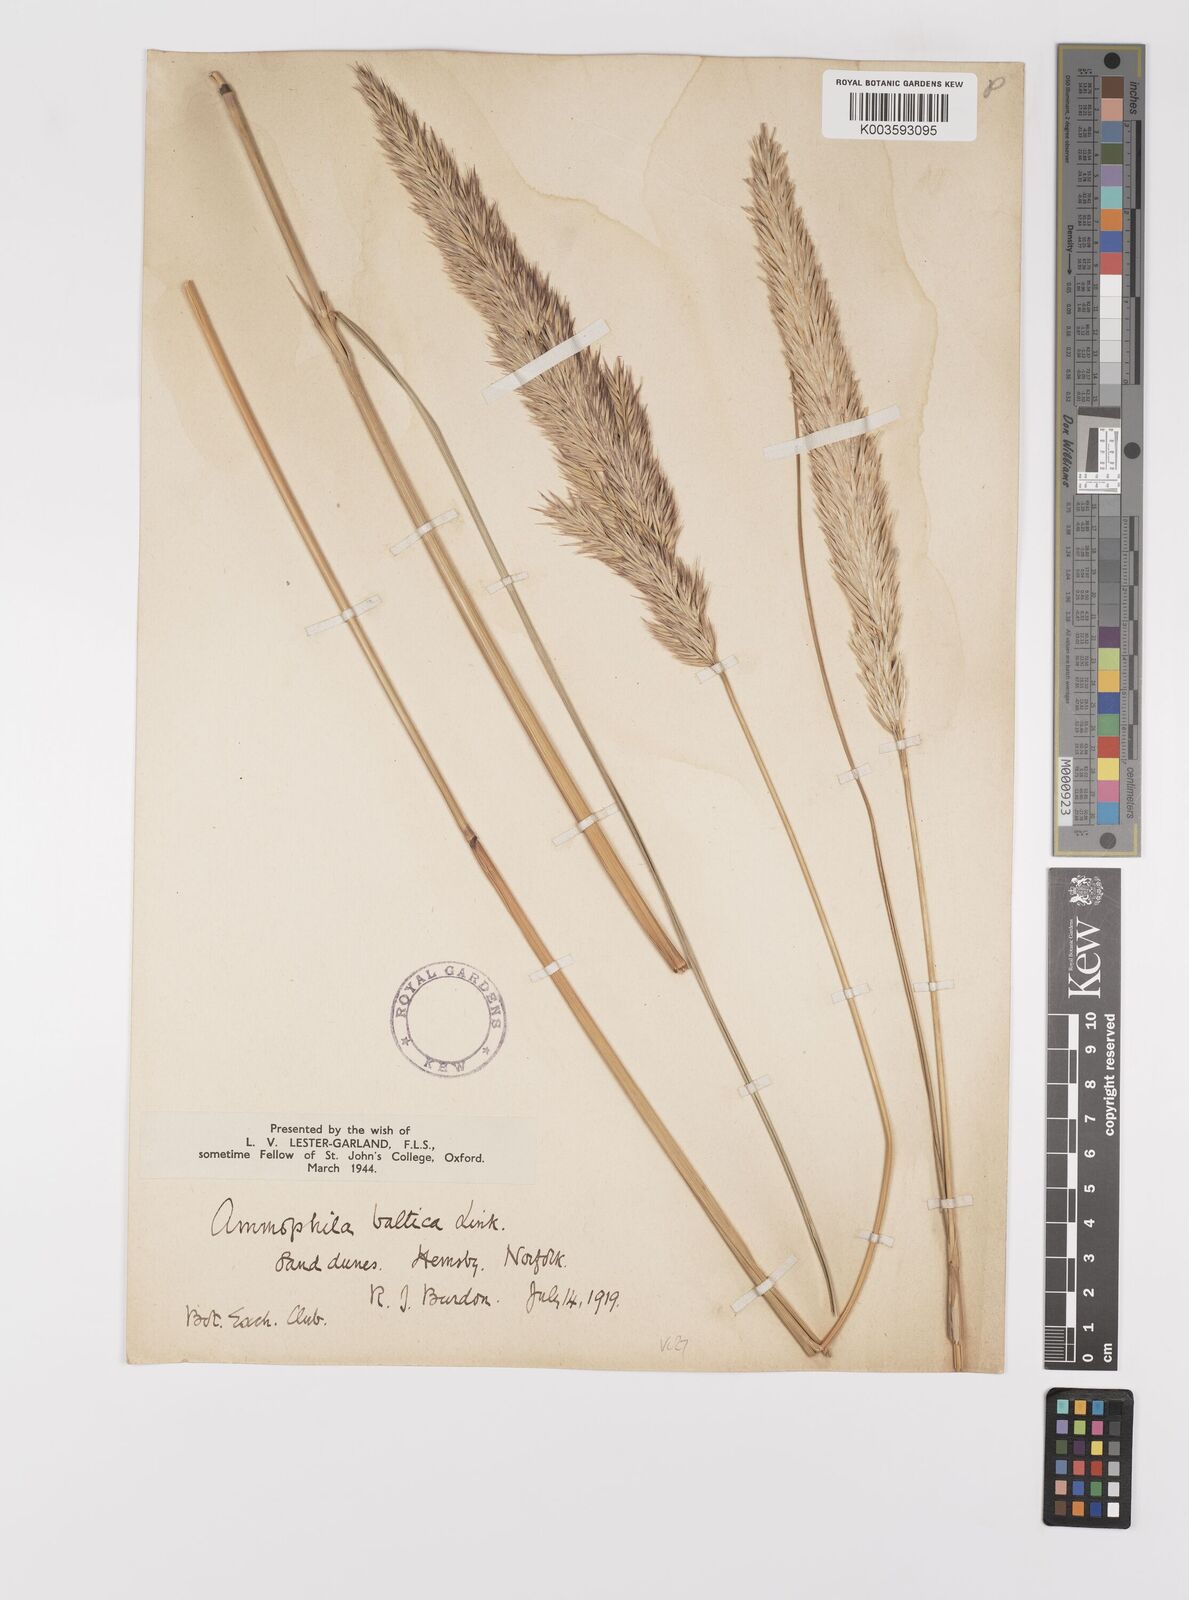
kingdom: Plantae
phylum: Tracheophyta
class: Liliopsida
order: Poales
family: Poaceae
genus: Calamagrostis
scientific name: Calamagrostis baltica
